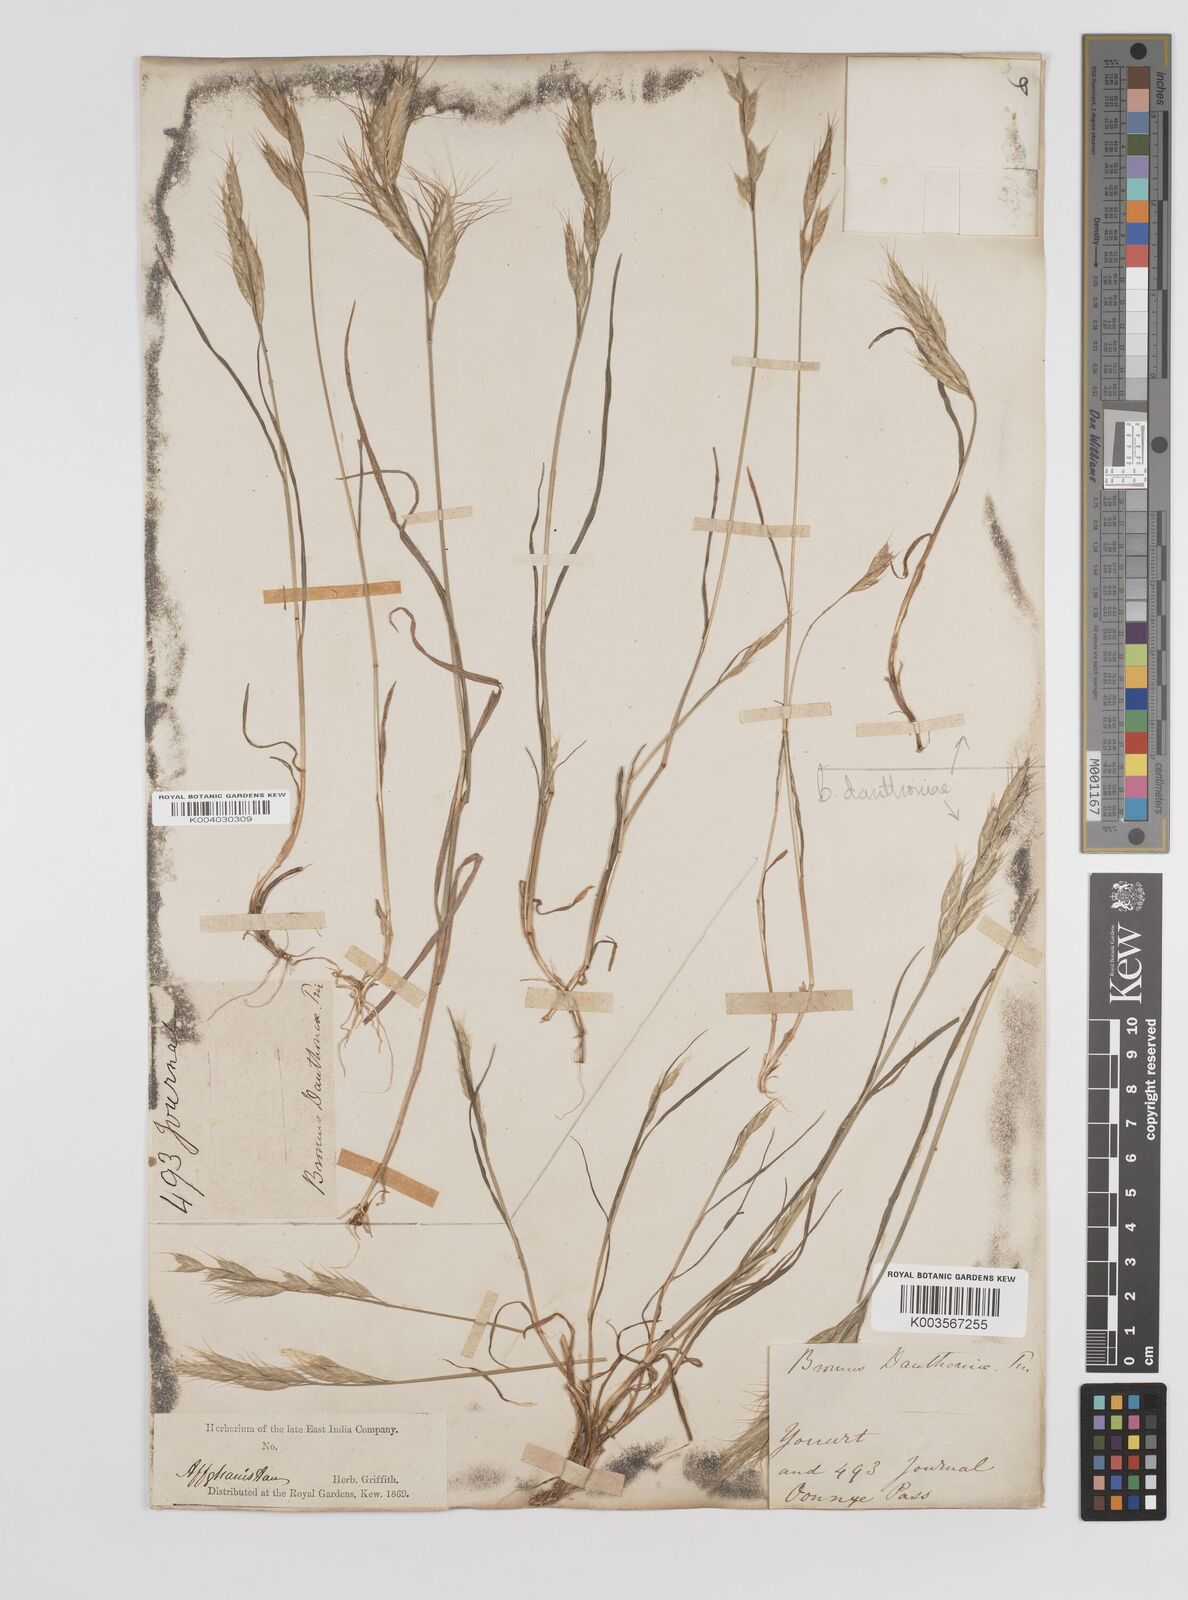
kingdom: Plantae
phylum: Tracheophyta
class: Liliopsida
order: Poales
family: Poaceae
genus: Bromus
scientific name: Bromus danthoniae
